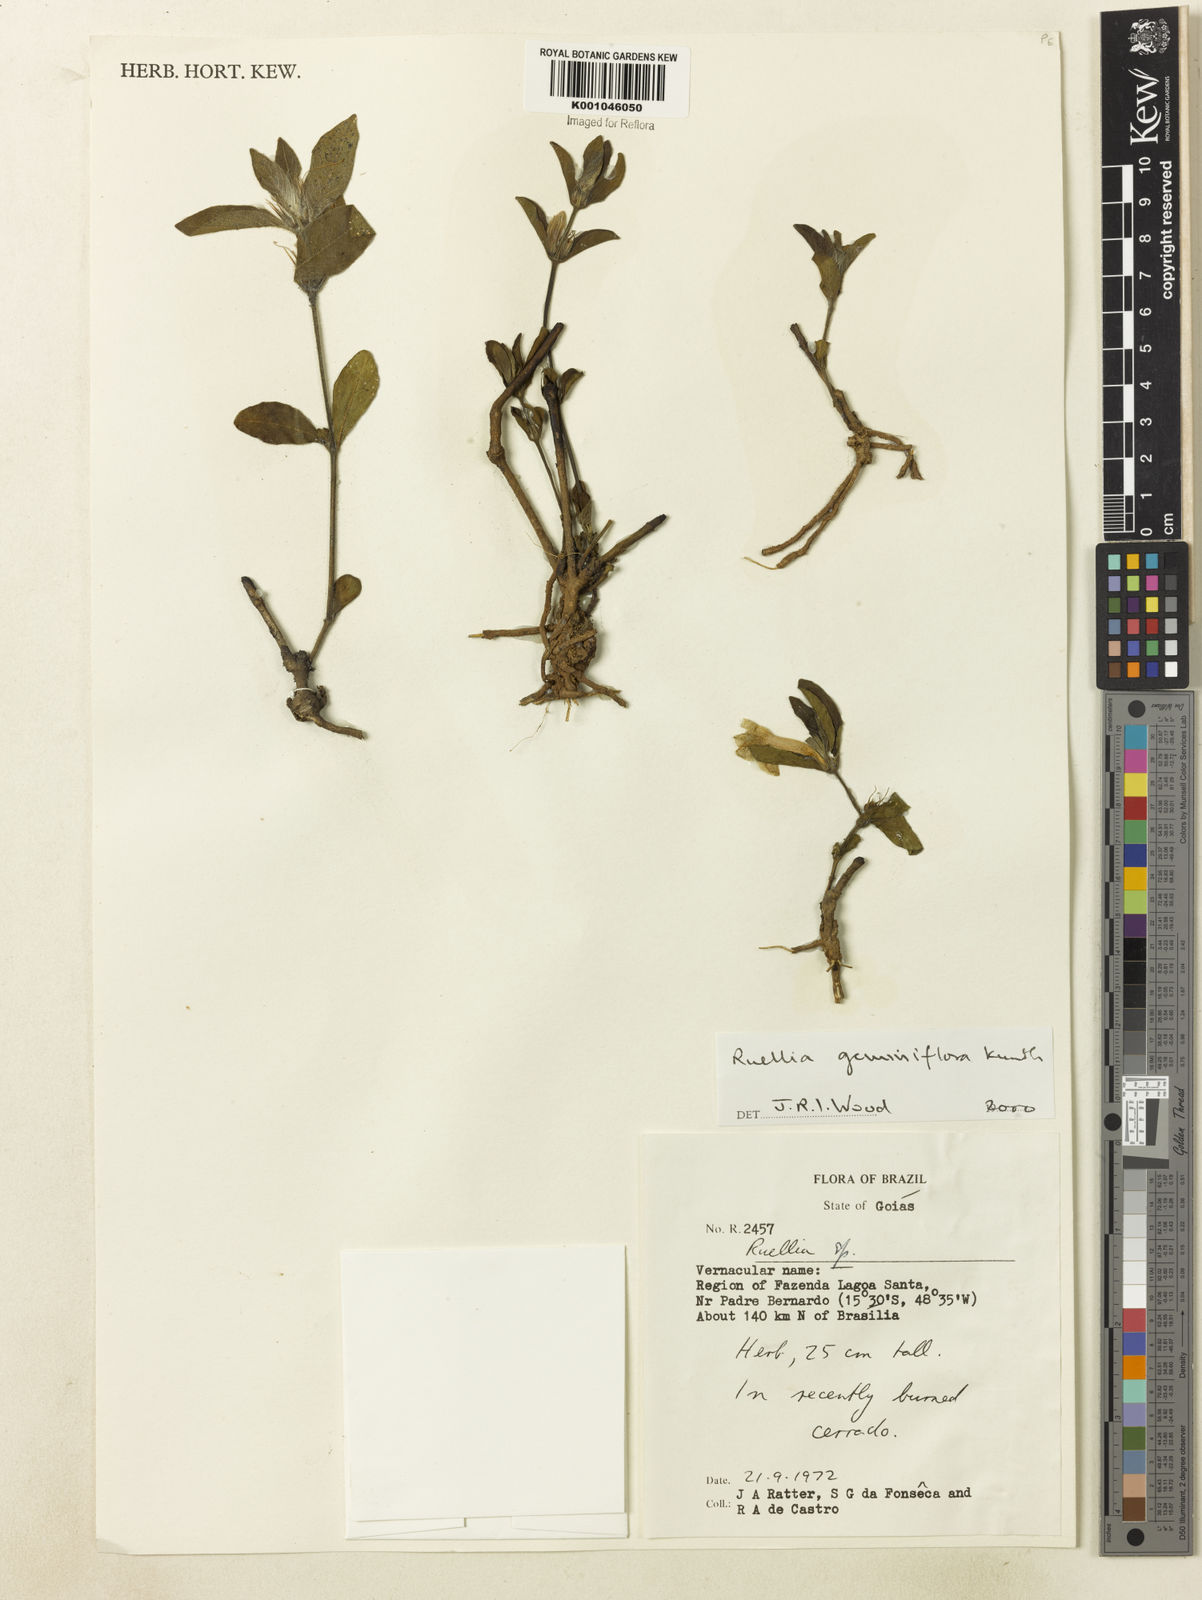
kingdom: Plantae
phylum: Tracheophyta
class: Magnoliopsida
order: Lamiales
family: Acanthaceae
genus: Ruellia
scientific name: Ruellia geminiflora
